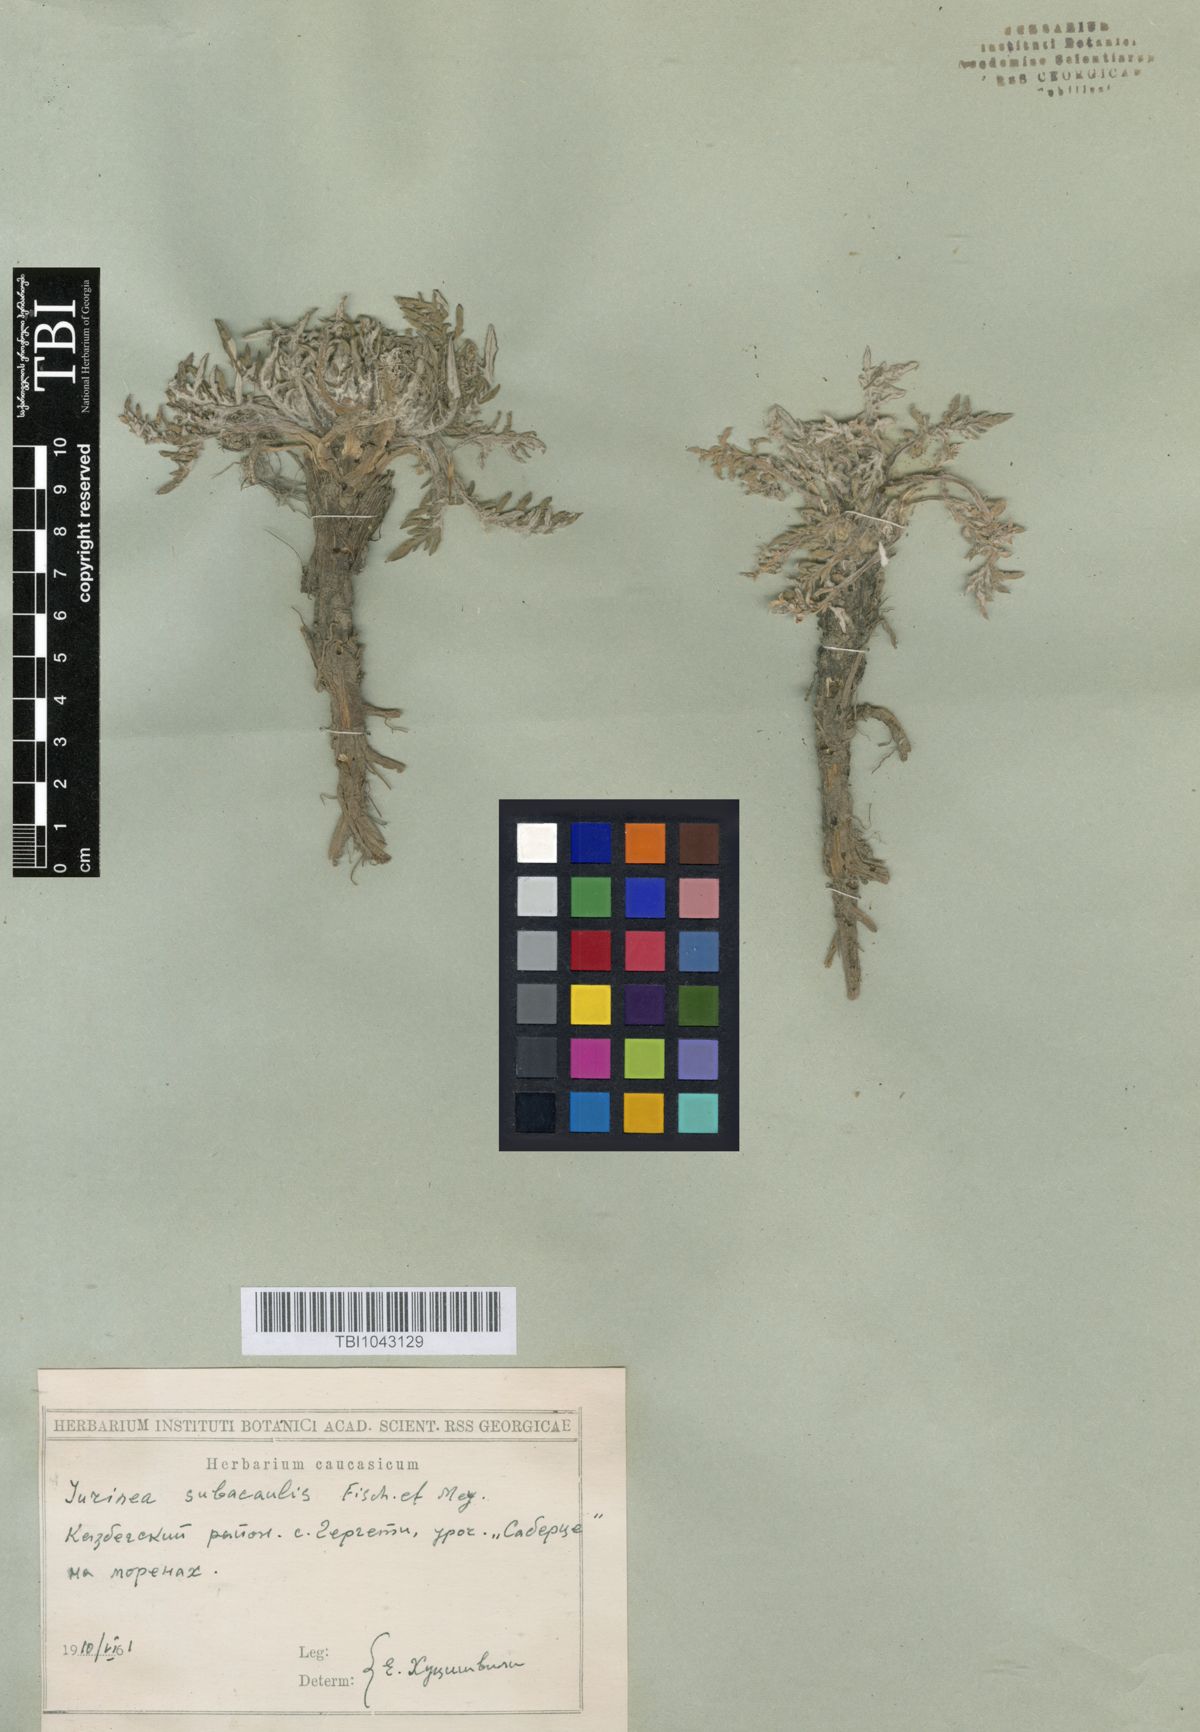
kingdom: Plantae
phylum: Tracheophyta
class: Magnoliopsida
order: Asterales
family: Asteraceae
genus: Jurinea
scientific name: Jurinea moschus
